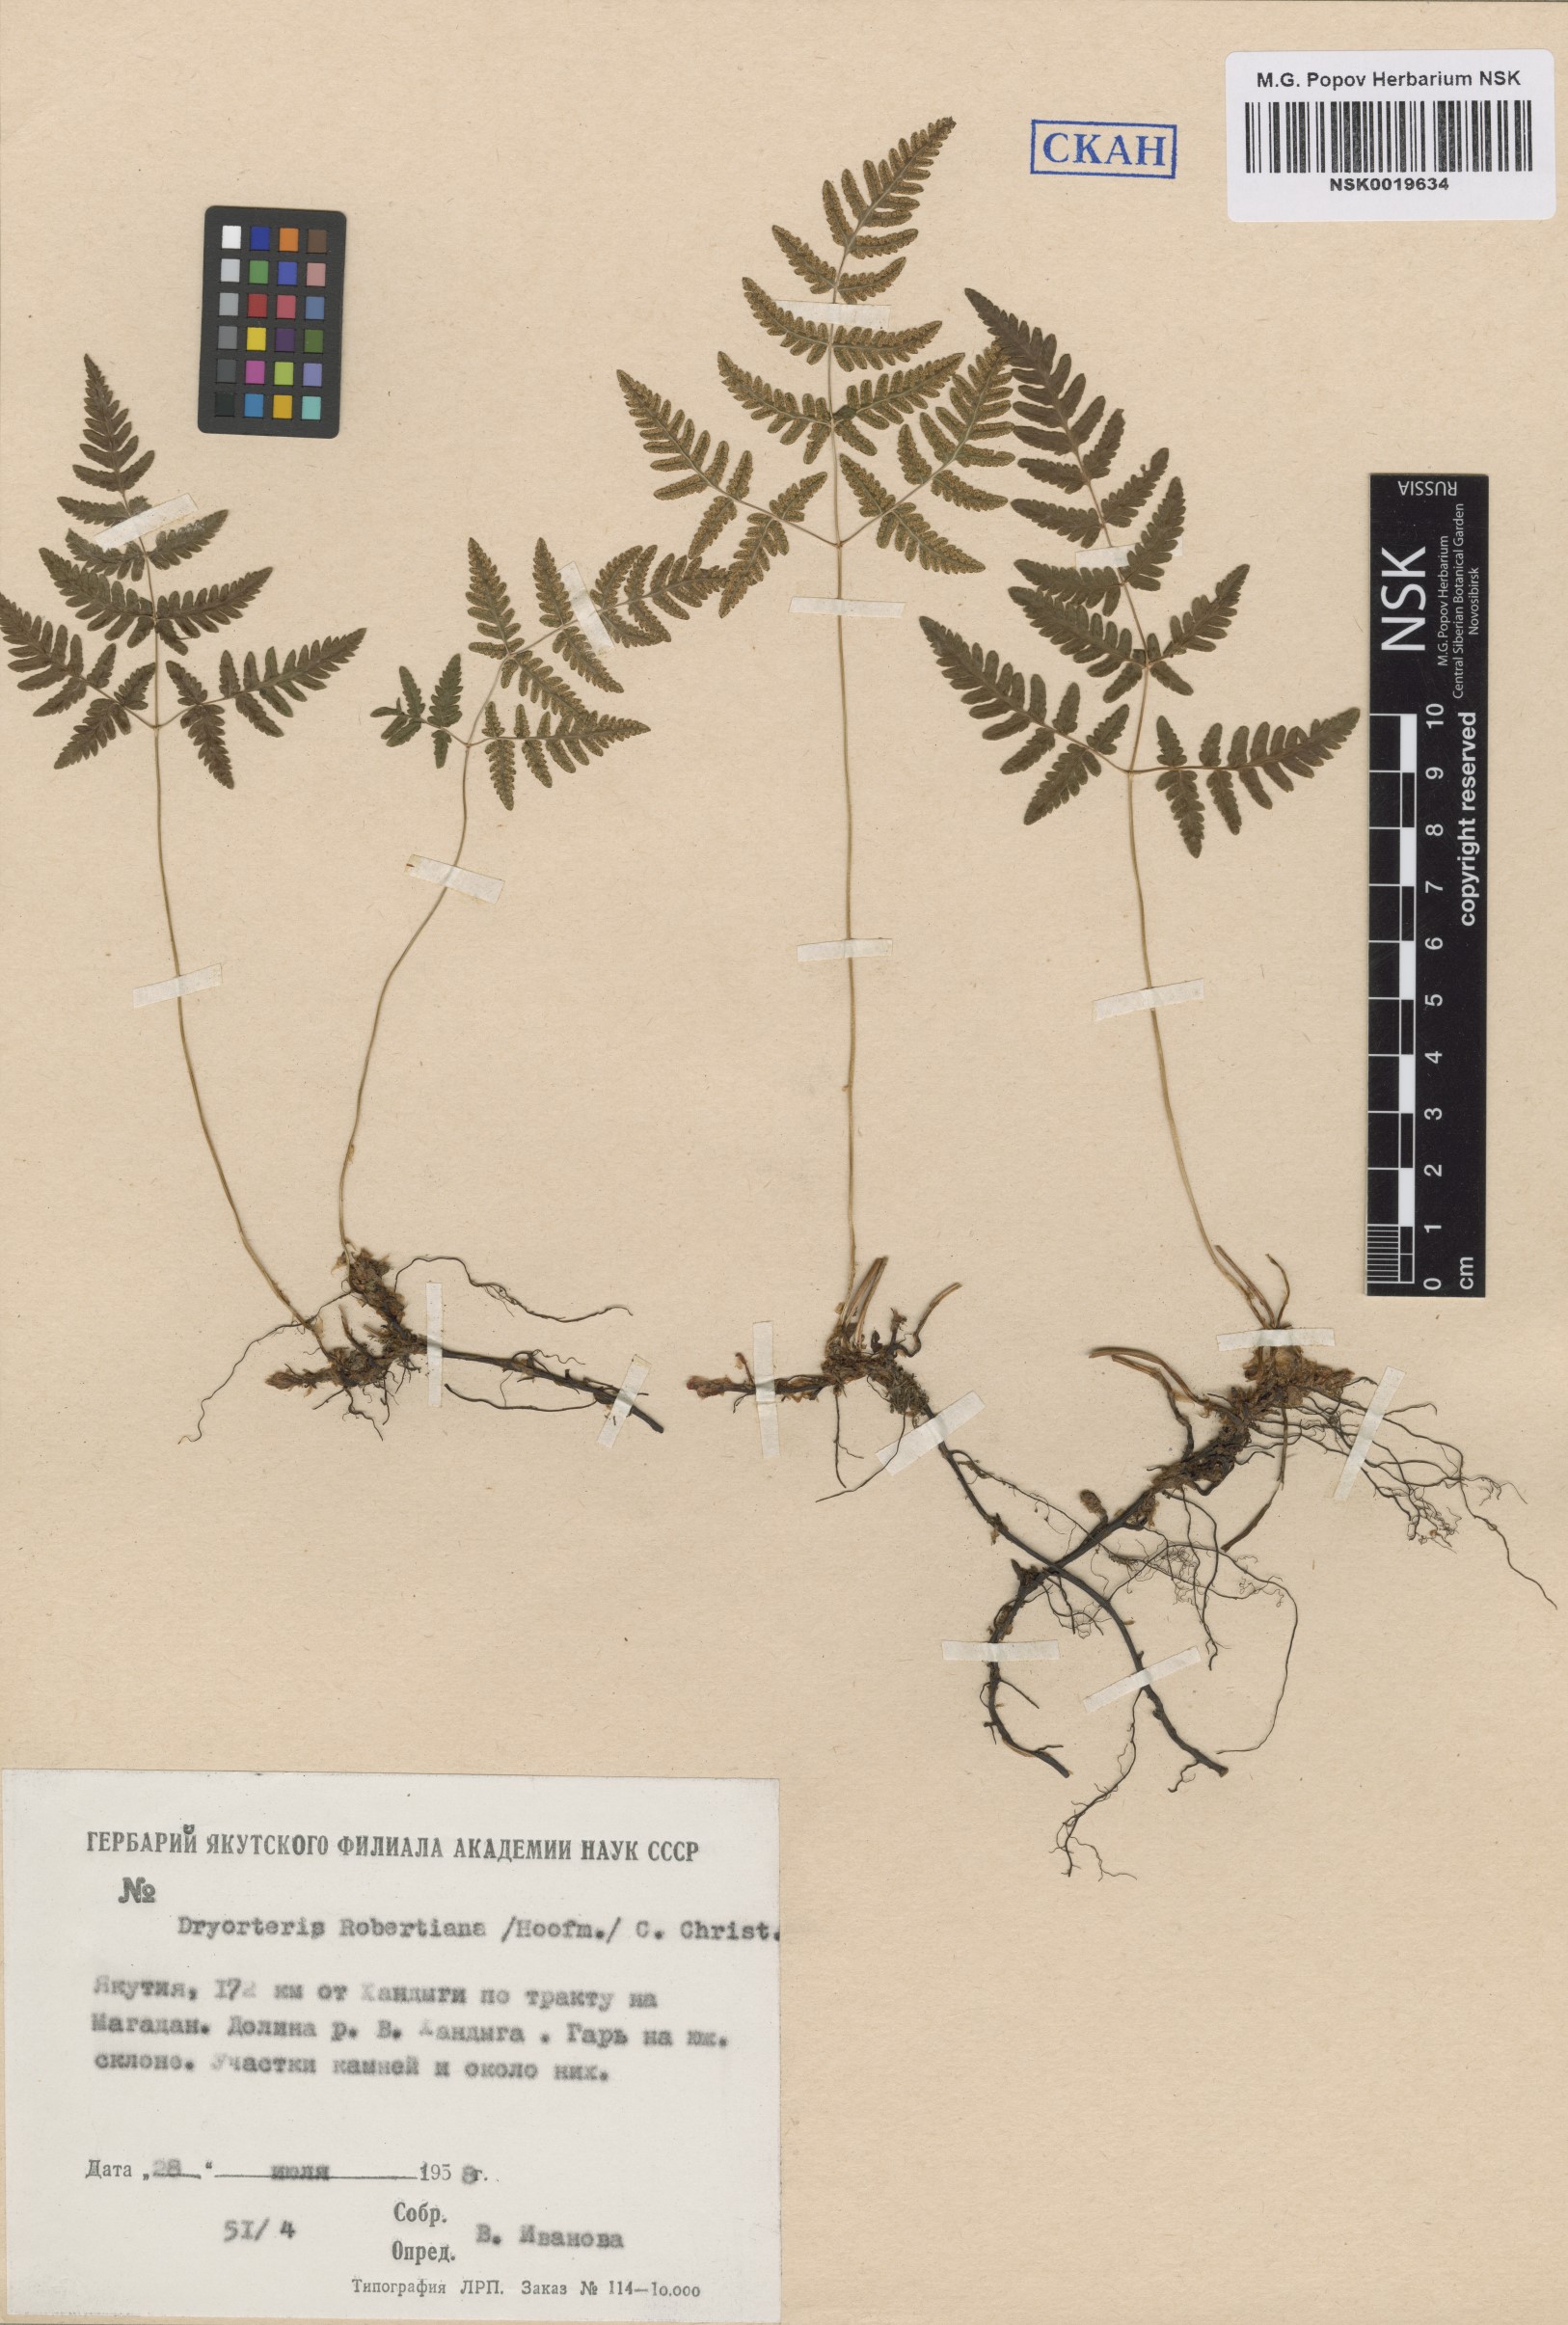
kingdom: Plantae
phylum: Tracheophyta
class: Polypodiopsida
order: Polypodiales
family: Cystopteridaceae
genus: Gymnocarpium
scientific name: Gymnocarpium robertianum
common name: Limestone fern
